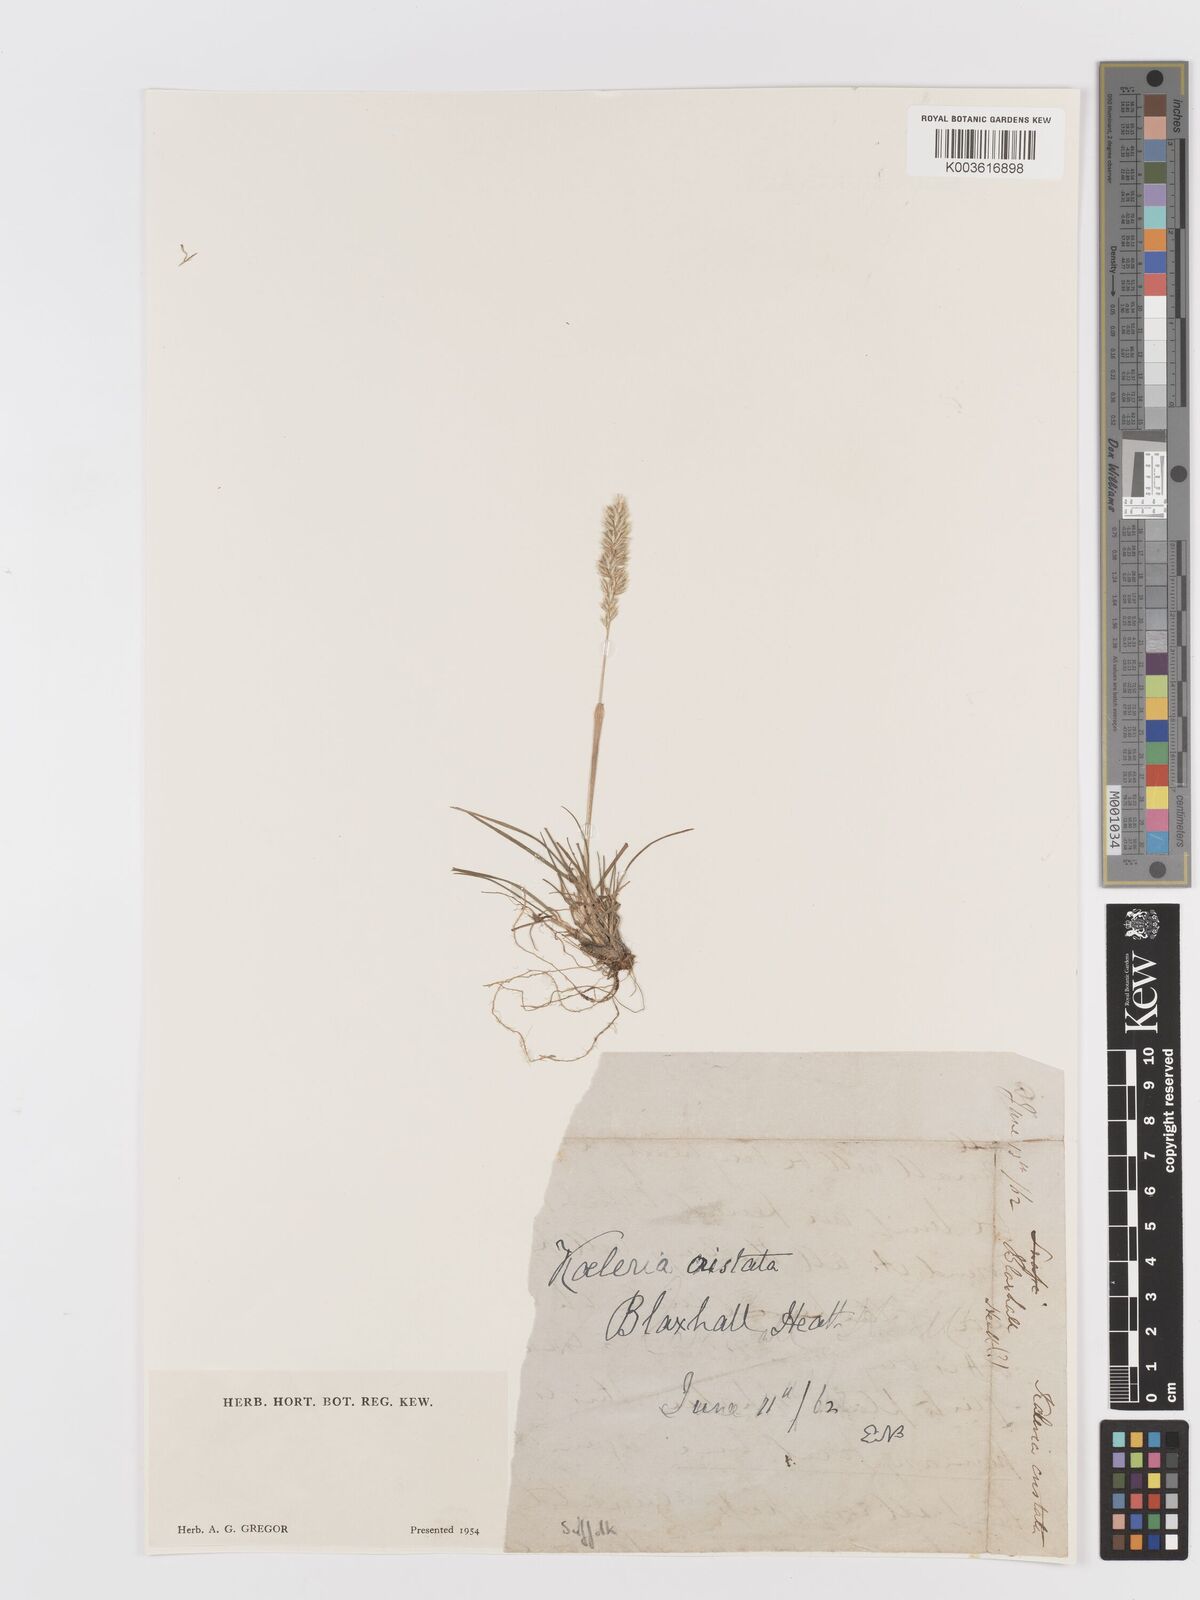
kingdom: Plantae
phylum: Tracheophyta
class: Liliopsida
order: Poales
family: Poaceae
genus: Koeleria
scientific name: Koeleria macrantha
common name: Crested hair-grass
